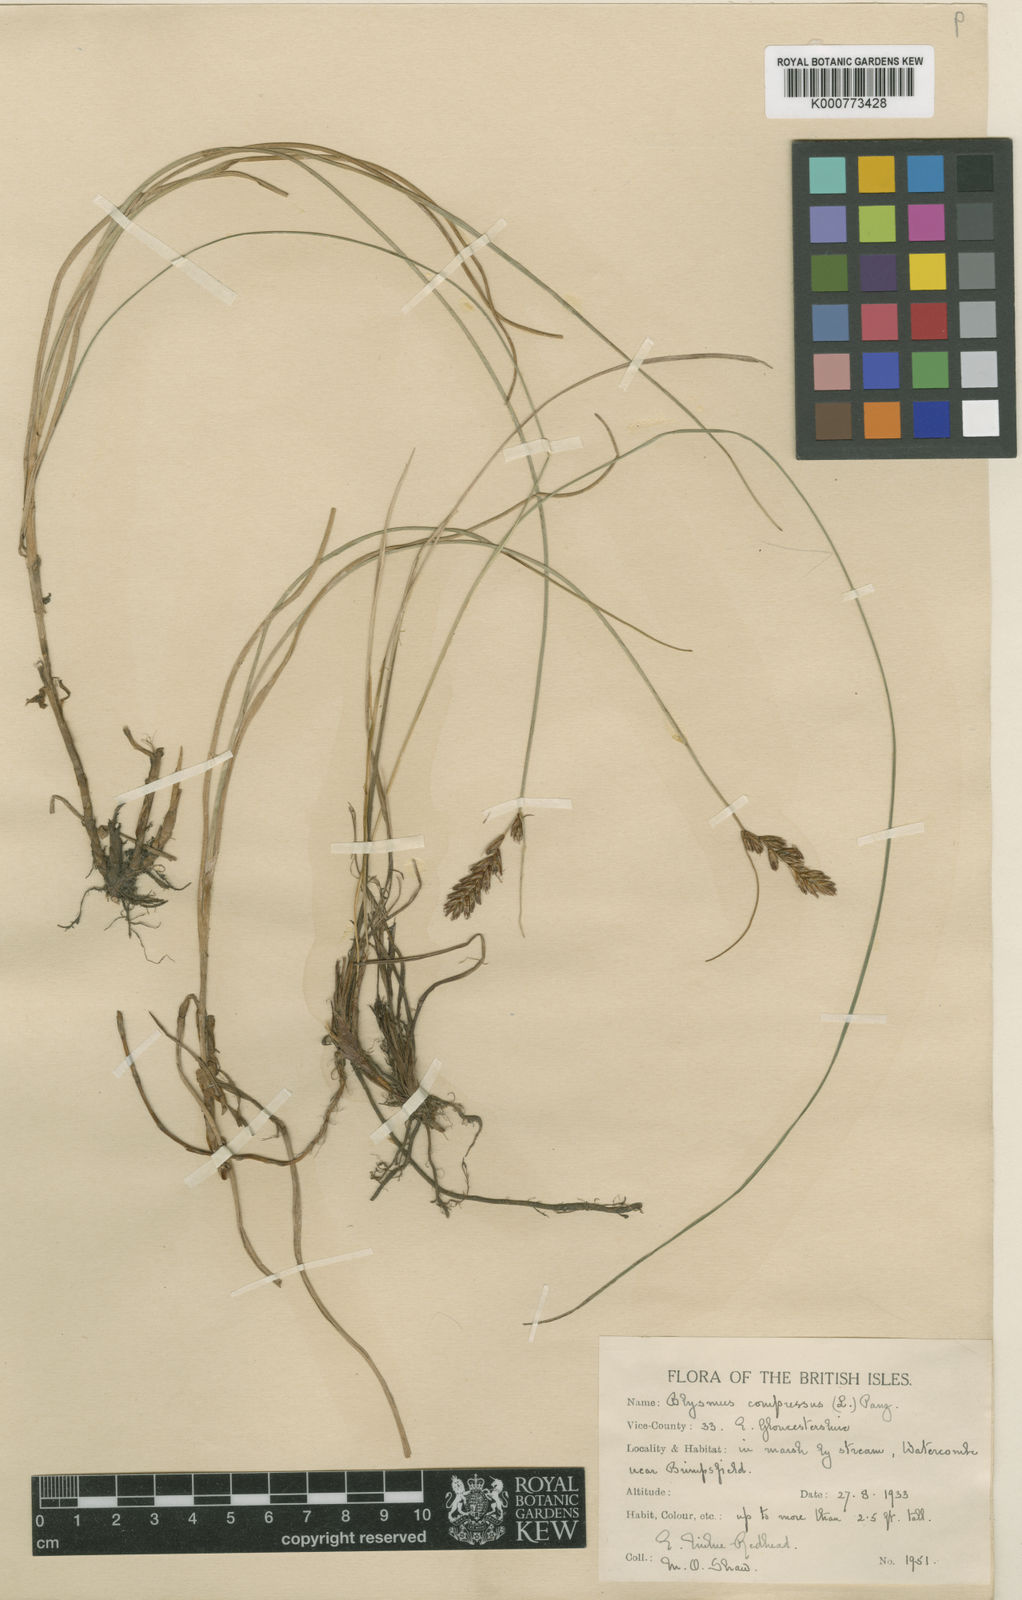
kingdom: Plantae
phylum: Tracheophyta
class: Liliopsida
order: Poales
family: Cyperaceae
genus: Blysmus
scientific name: Blysmus compressus
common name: Flat-sedge
